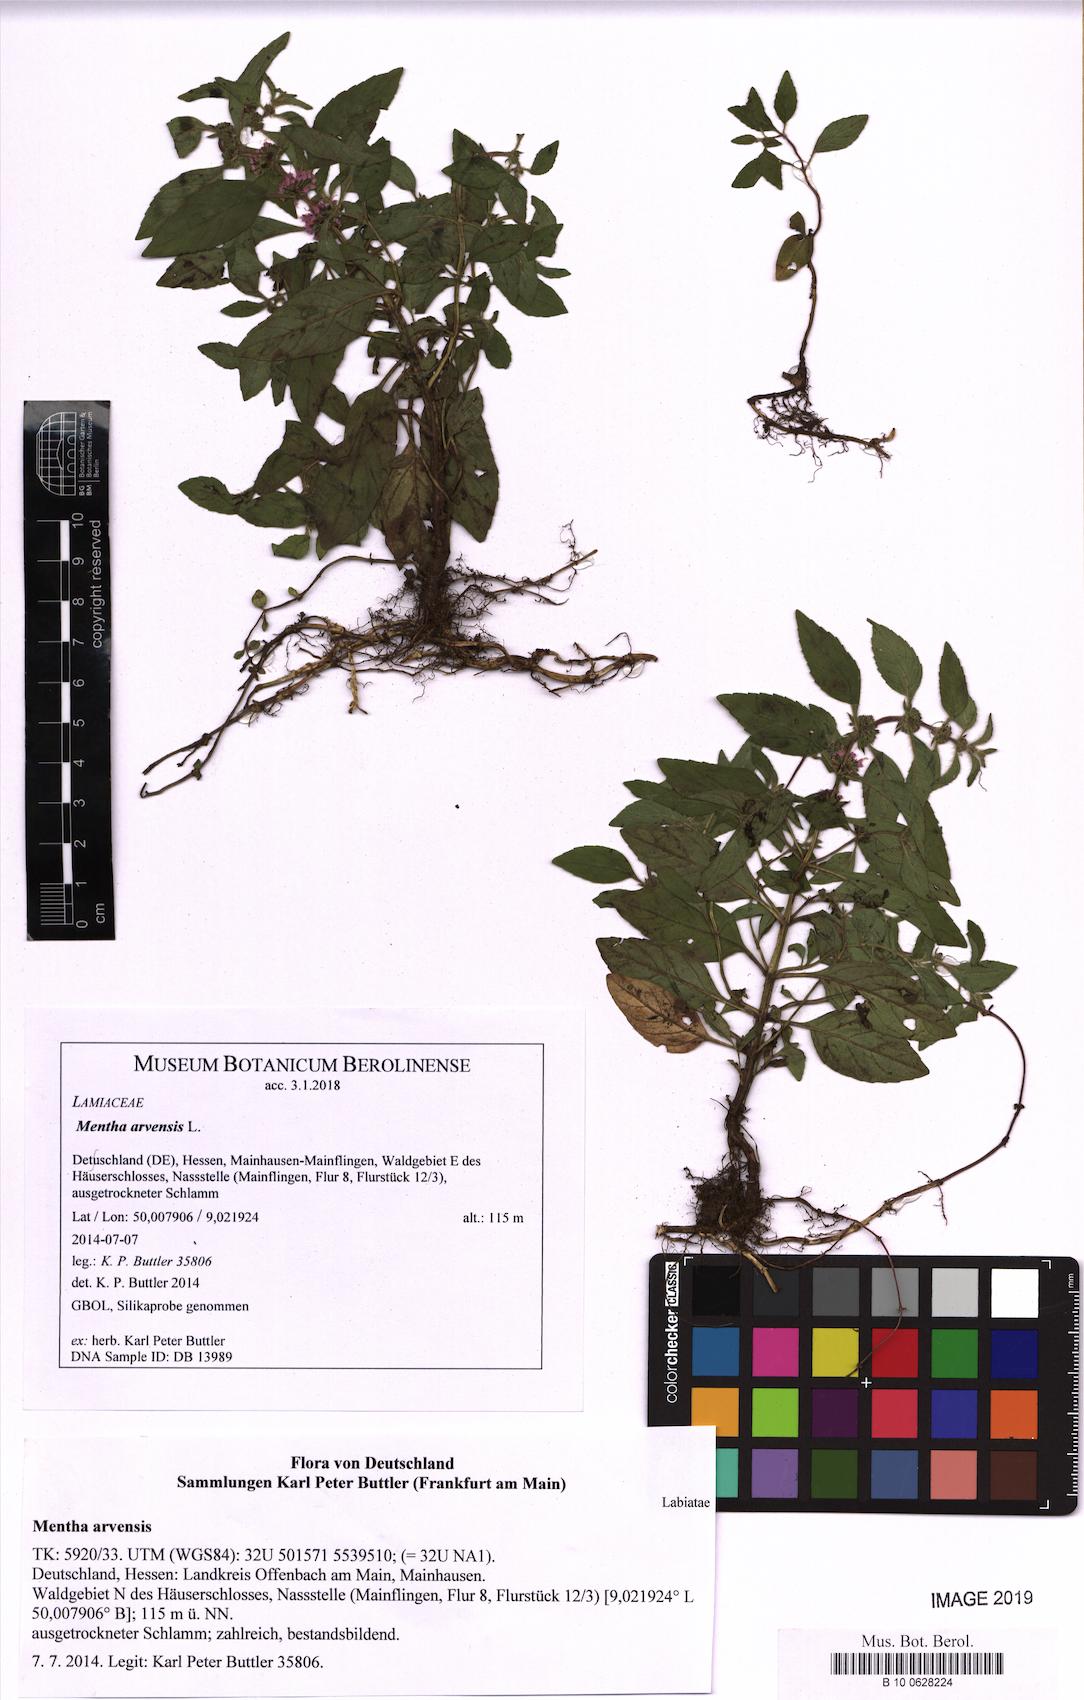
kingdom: Plantae
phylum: Tracheophyta
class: Magnoliopsida
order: Lamiales
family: Lamiaceae
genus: Mentha
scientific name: Mentha arvensis
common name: Corn mint
